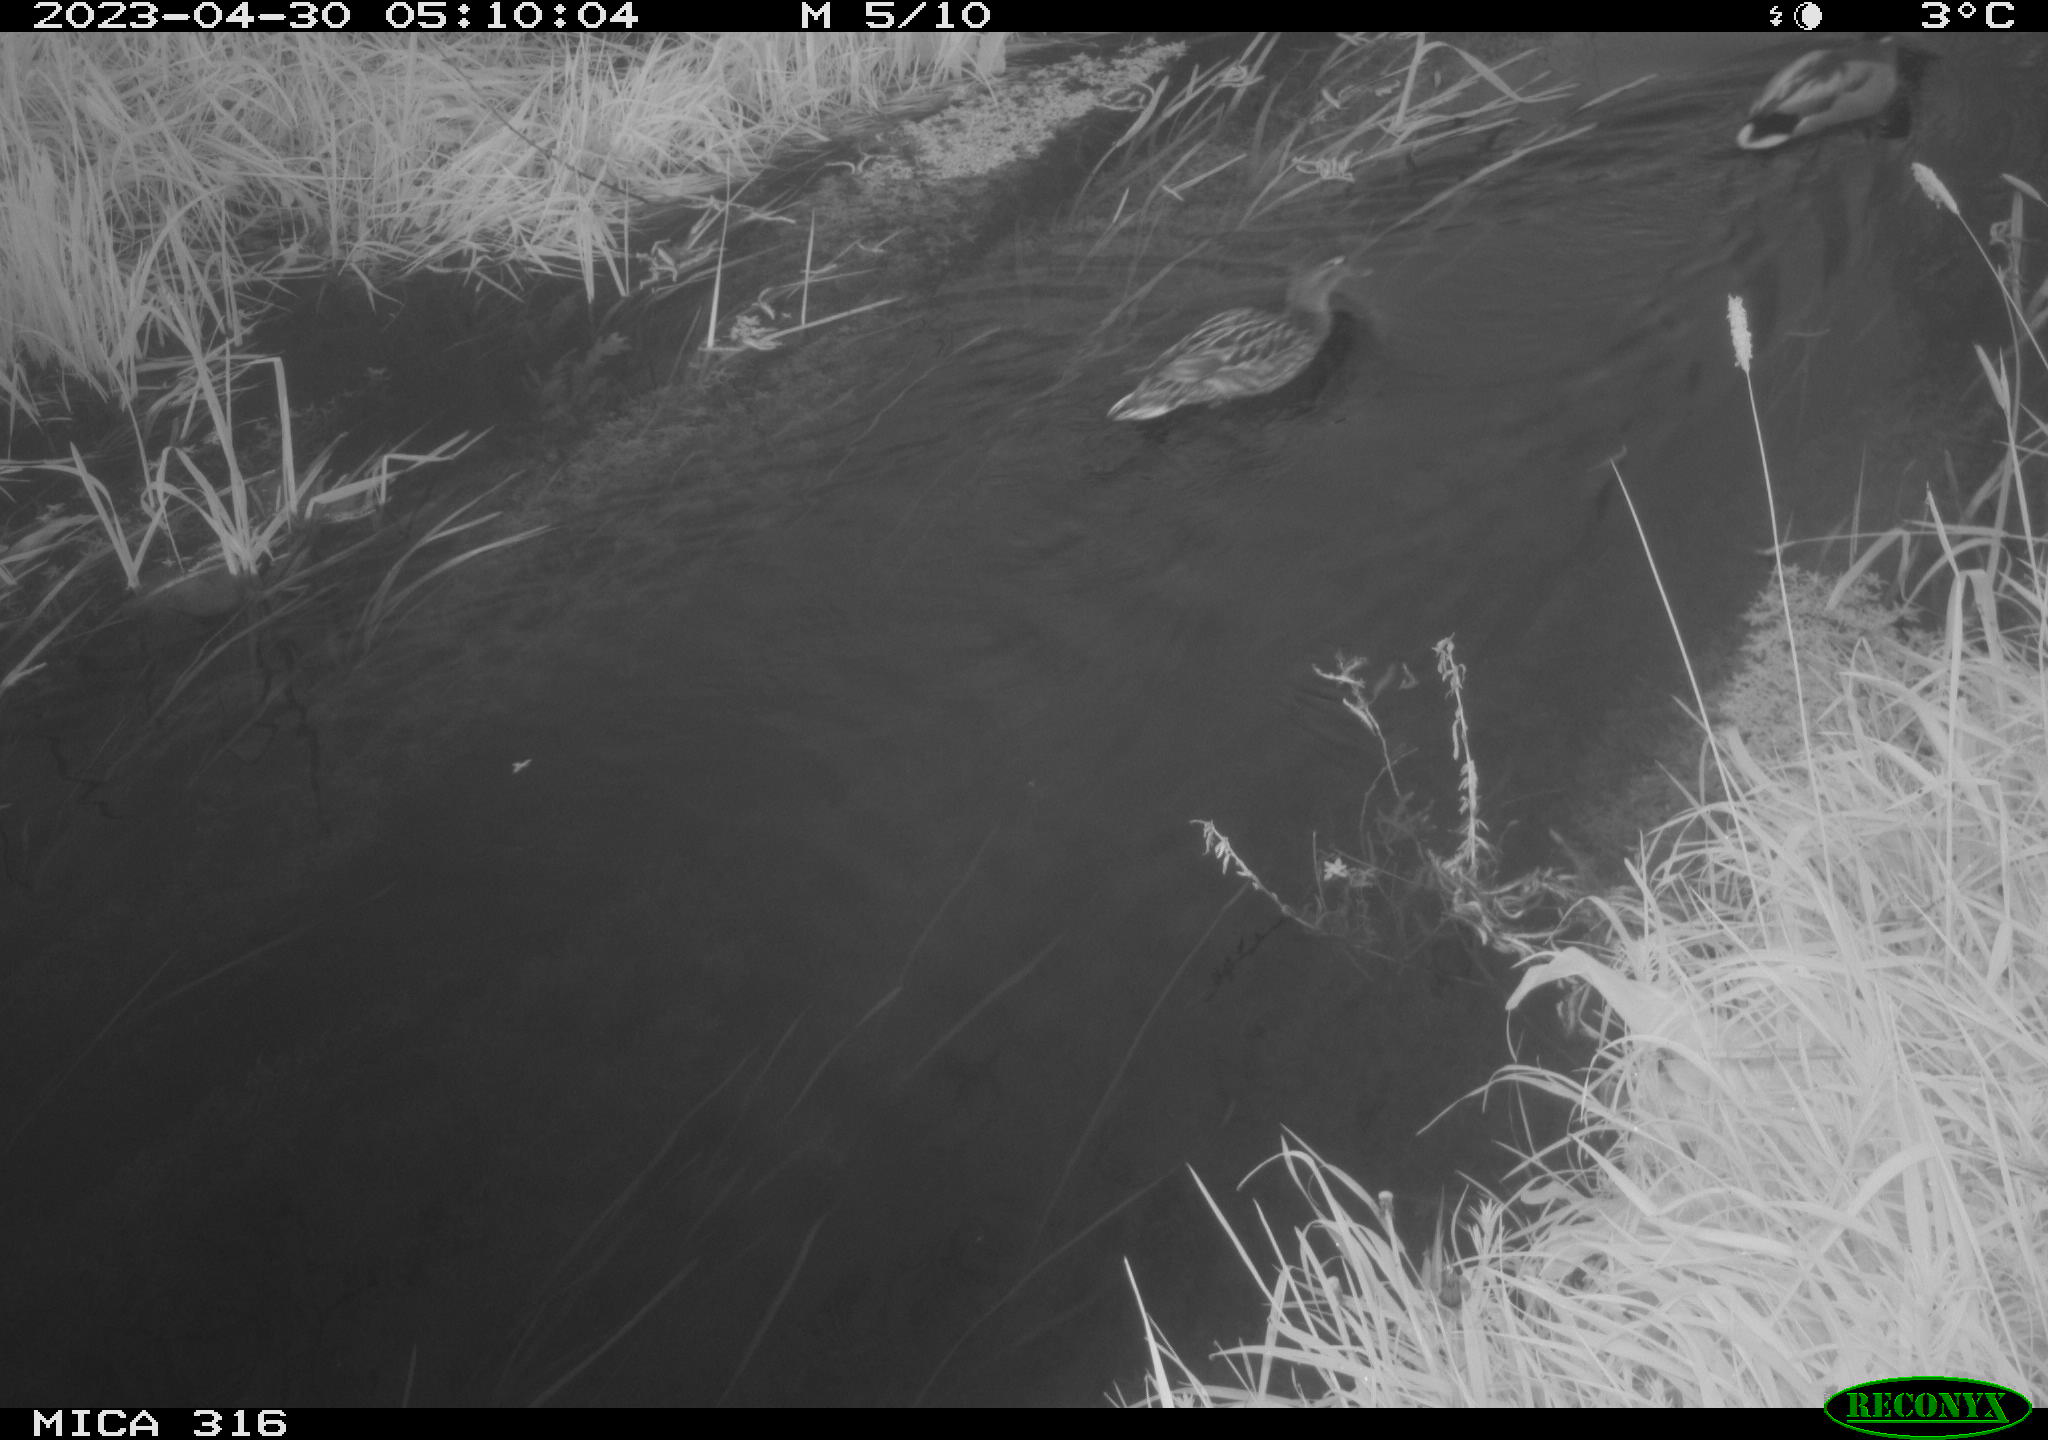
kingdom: Animalia
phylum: Chordata
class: Aves
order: Anseriformes
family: Anatidae
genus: Anas
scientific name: Anas
